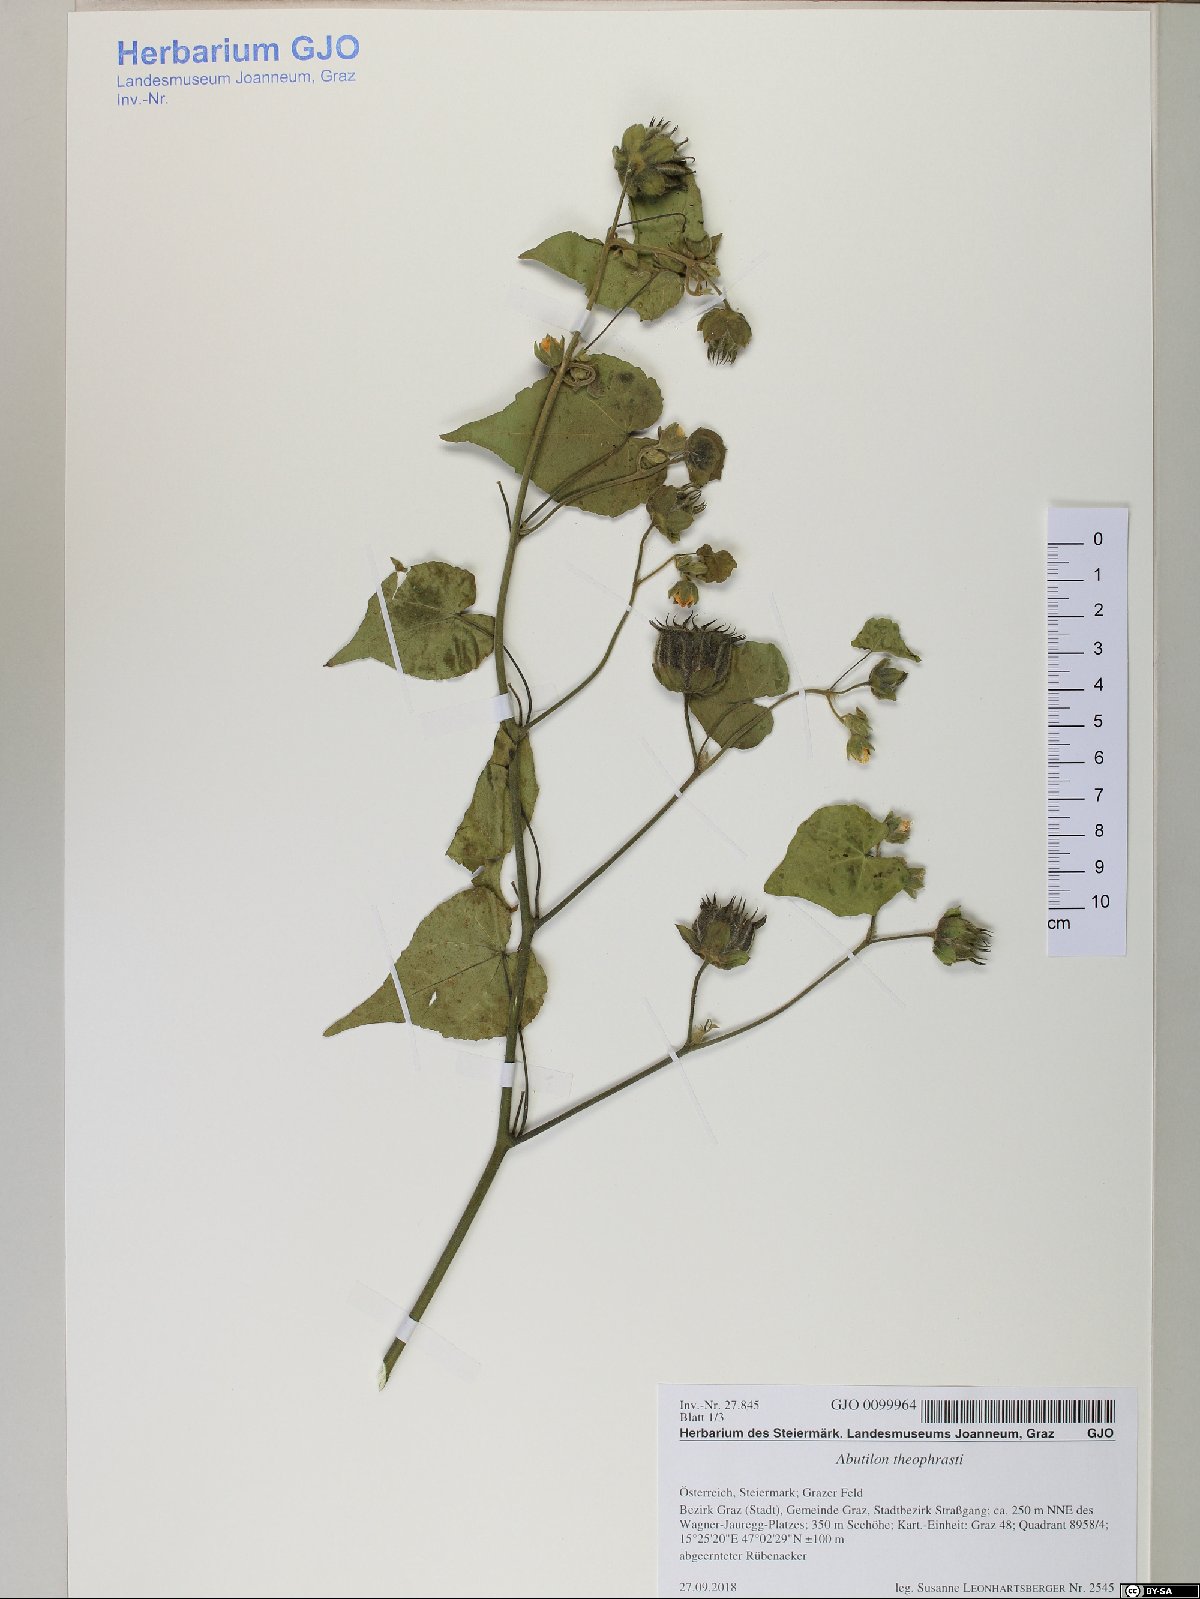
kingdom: Plantae
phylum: Tracheophyta
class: Magnoliopsida
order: Malvales
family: Malvaceae
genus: Malva
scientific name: Malva moschata
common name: Musk mallow
